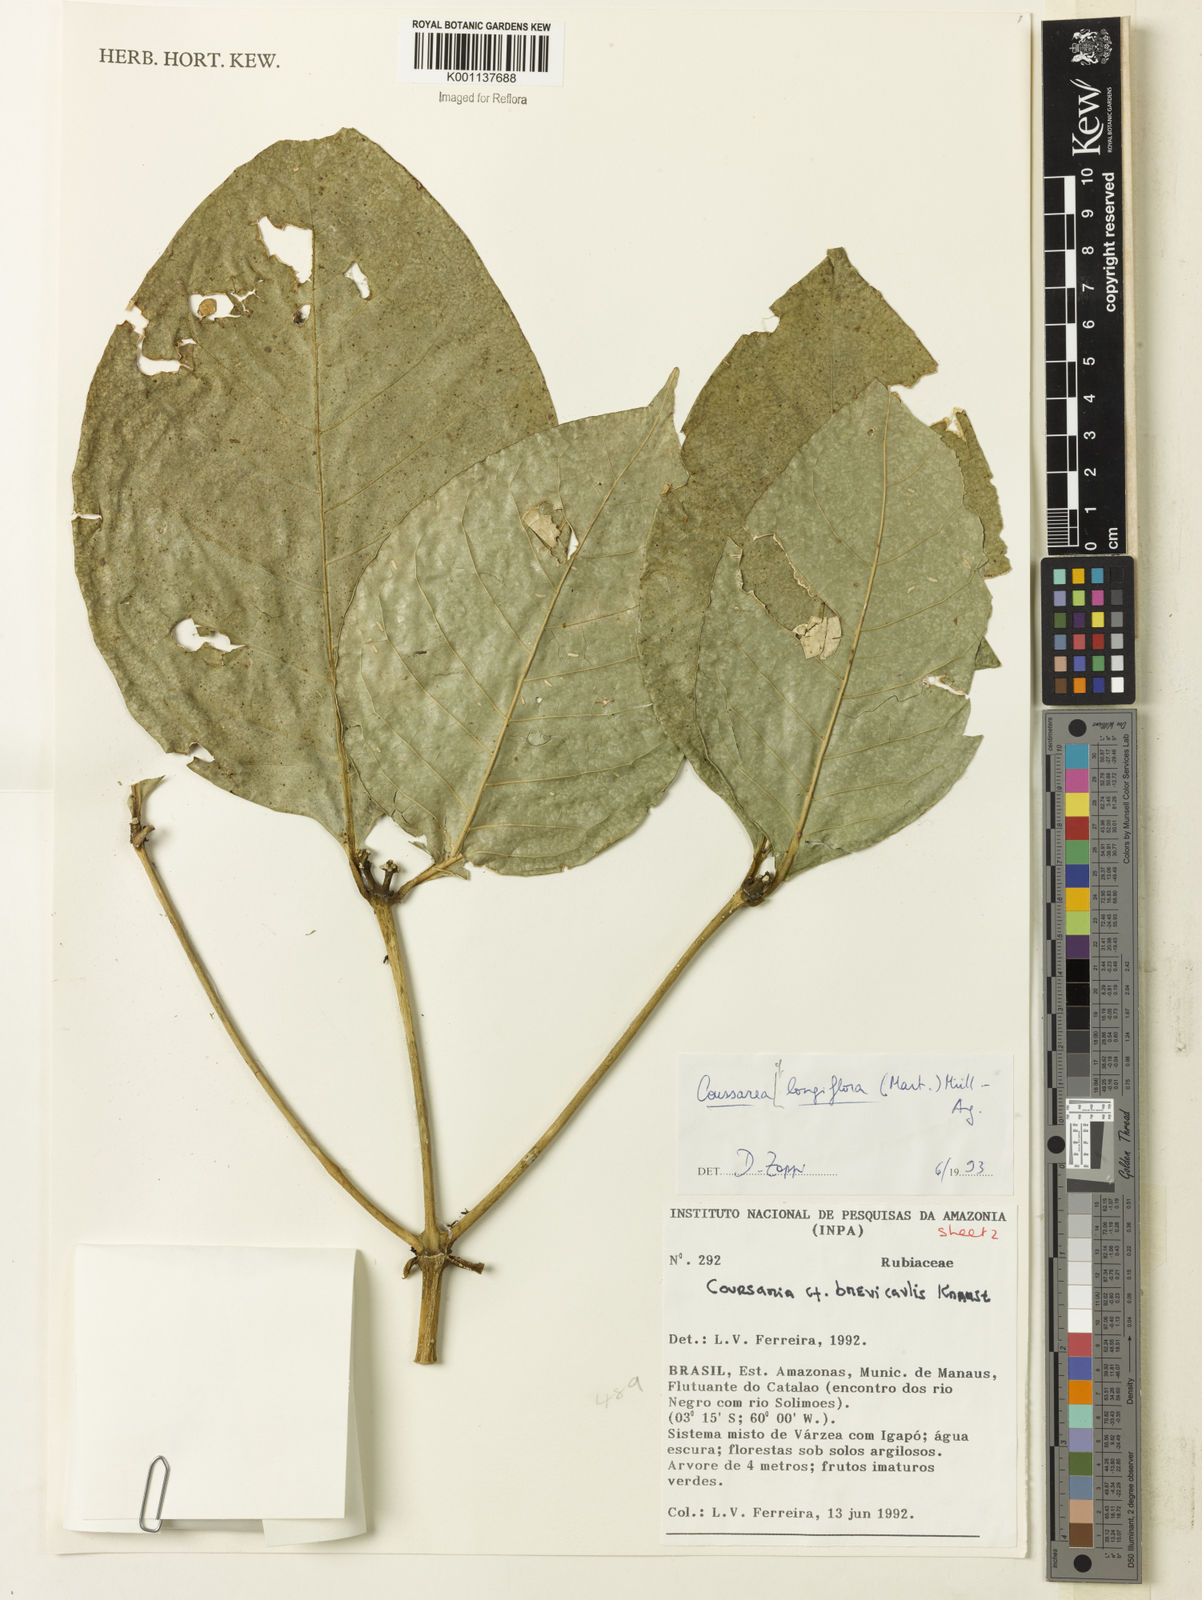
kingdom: Plantae
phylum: Tracheophyta
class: Magnoliopsida
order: Gentianales
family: Rubiaceae
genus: Coussarea
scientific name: Coussarea
